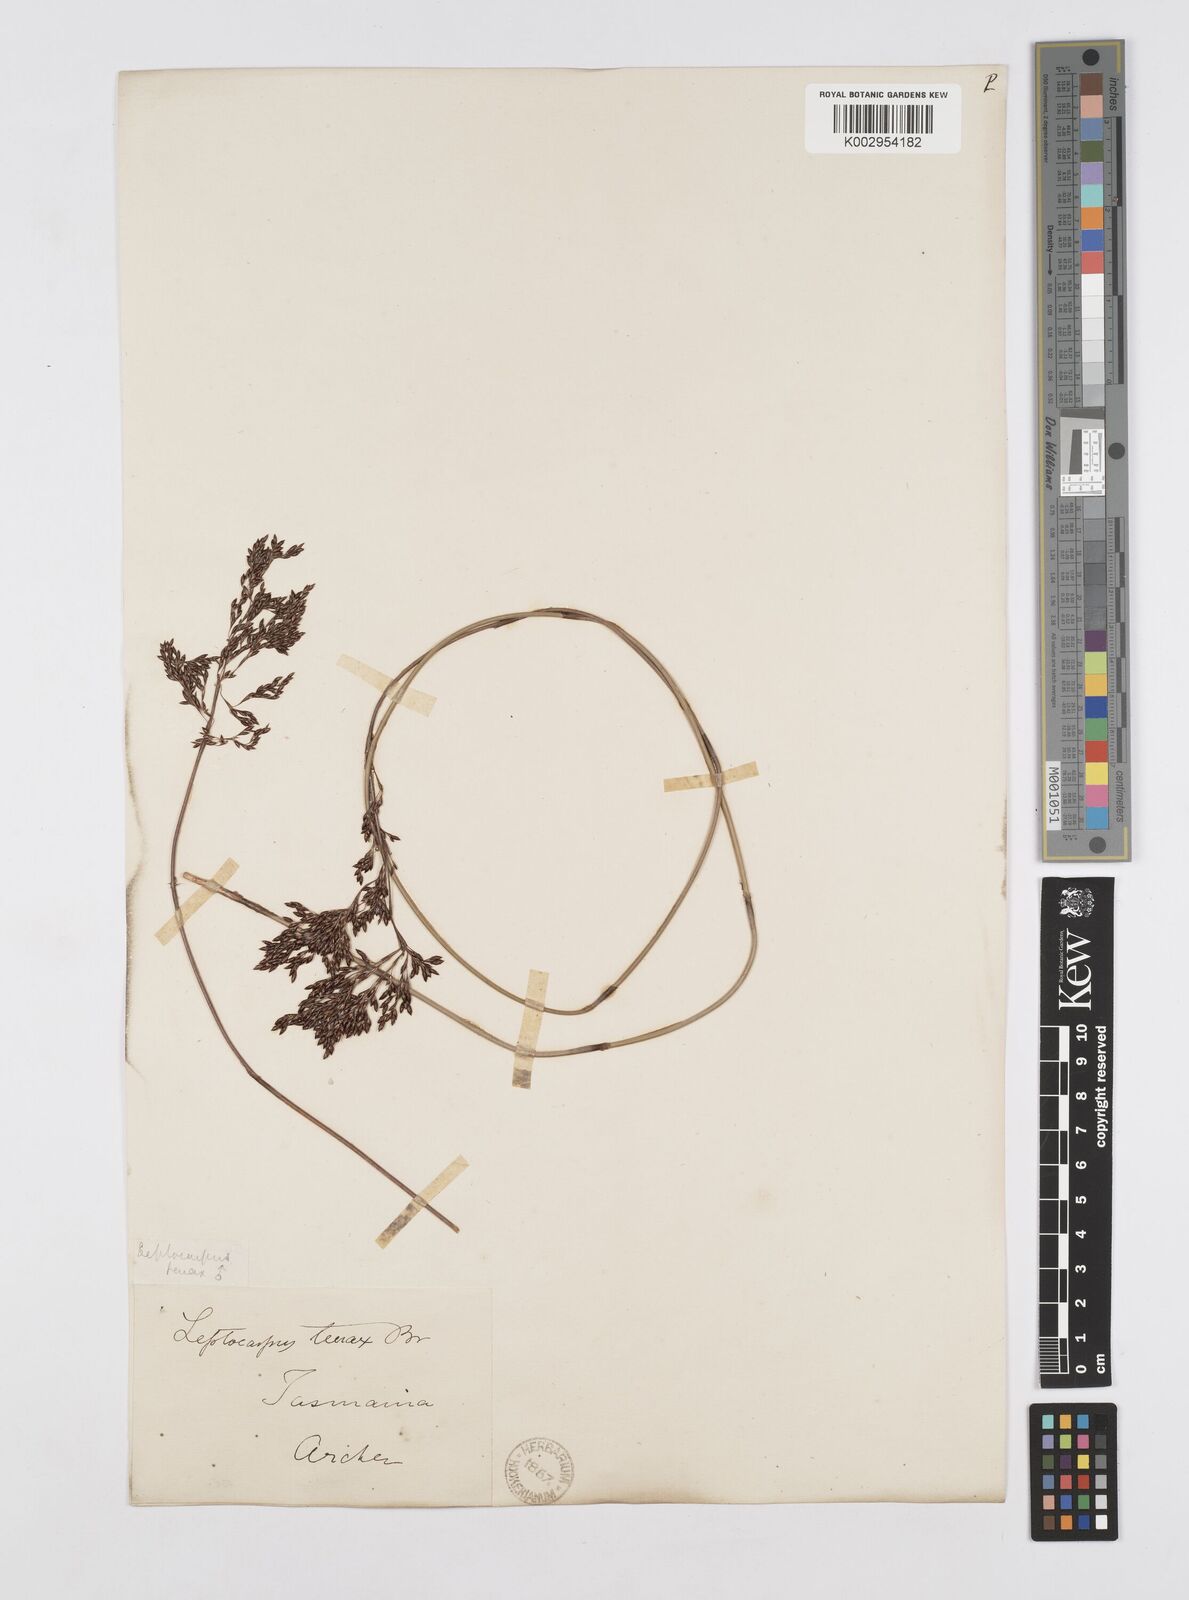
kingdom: Plantae
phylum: Tracheophyta
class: Liliopsida
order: Poales
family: Restionaceae
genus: Leptocarpus
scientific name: Leptocarpus tenax
